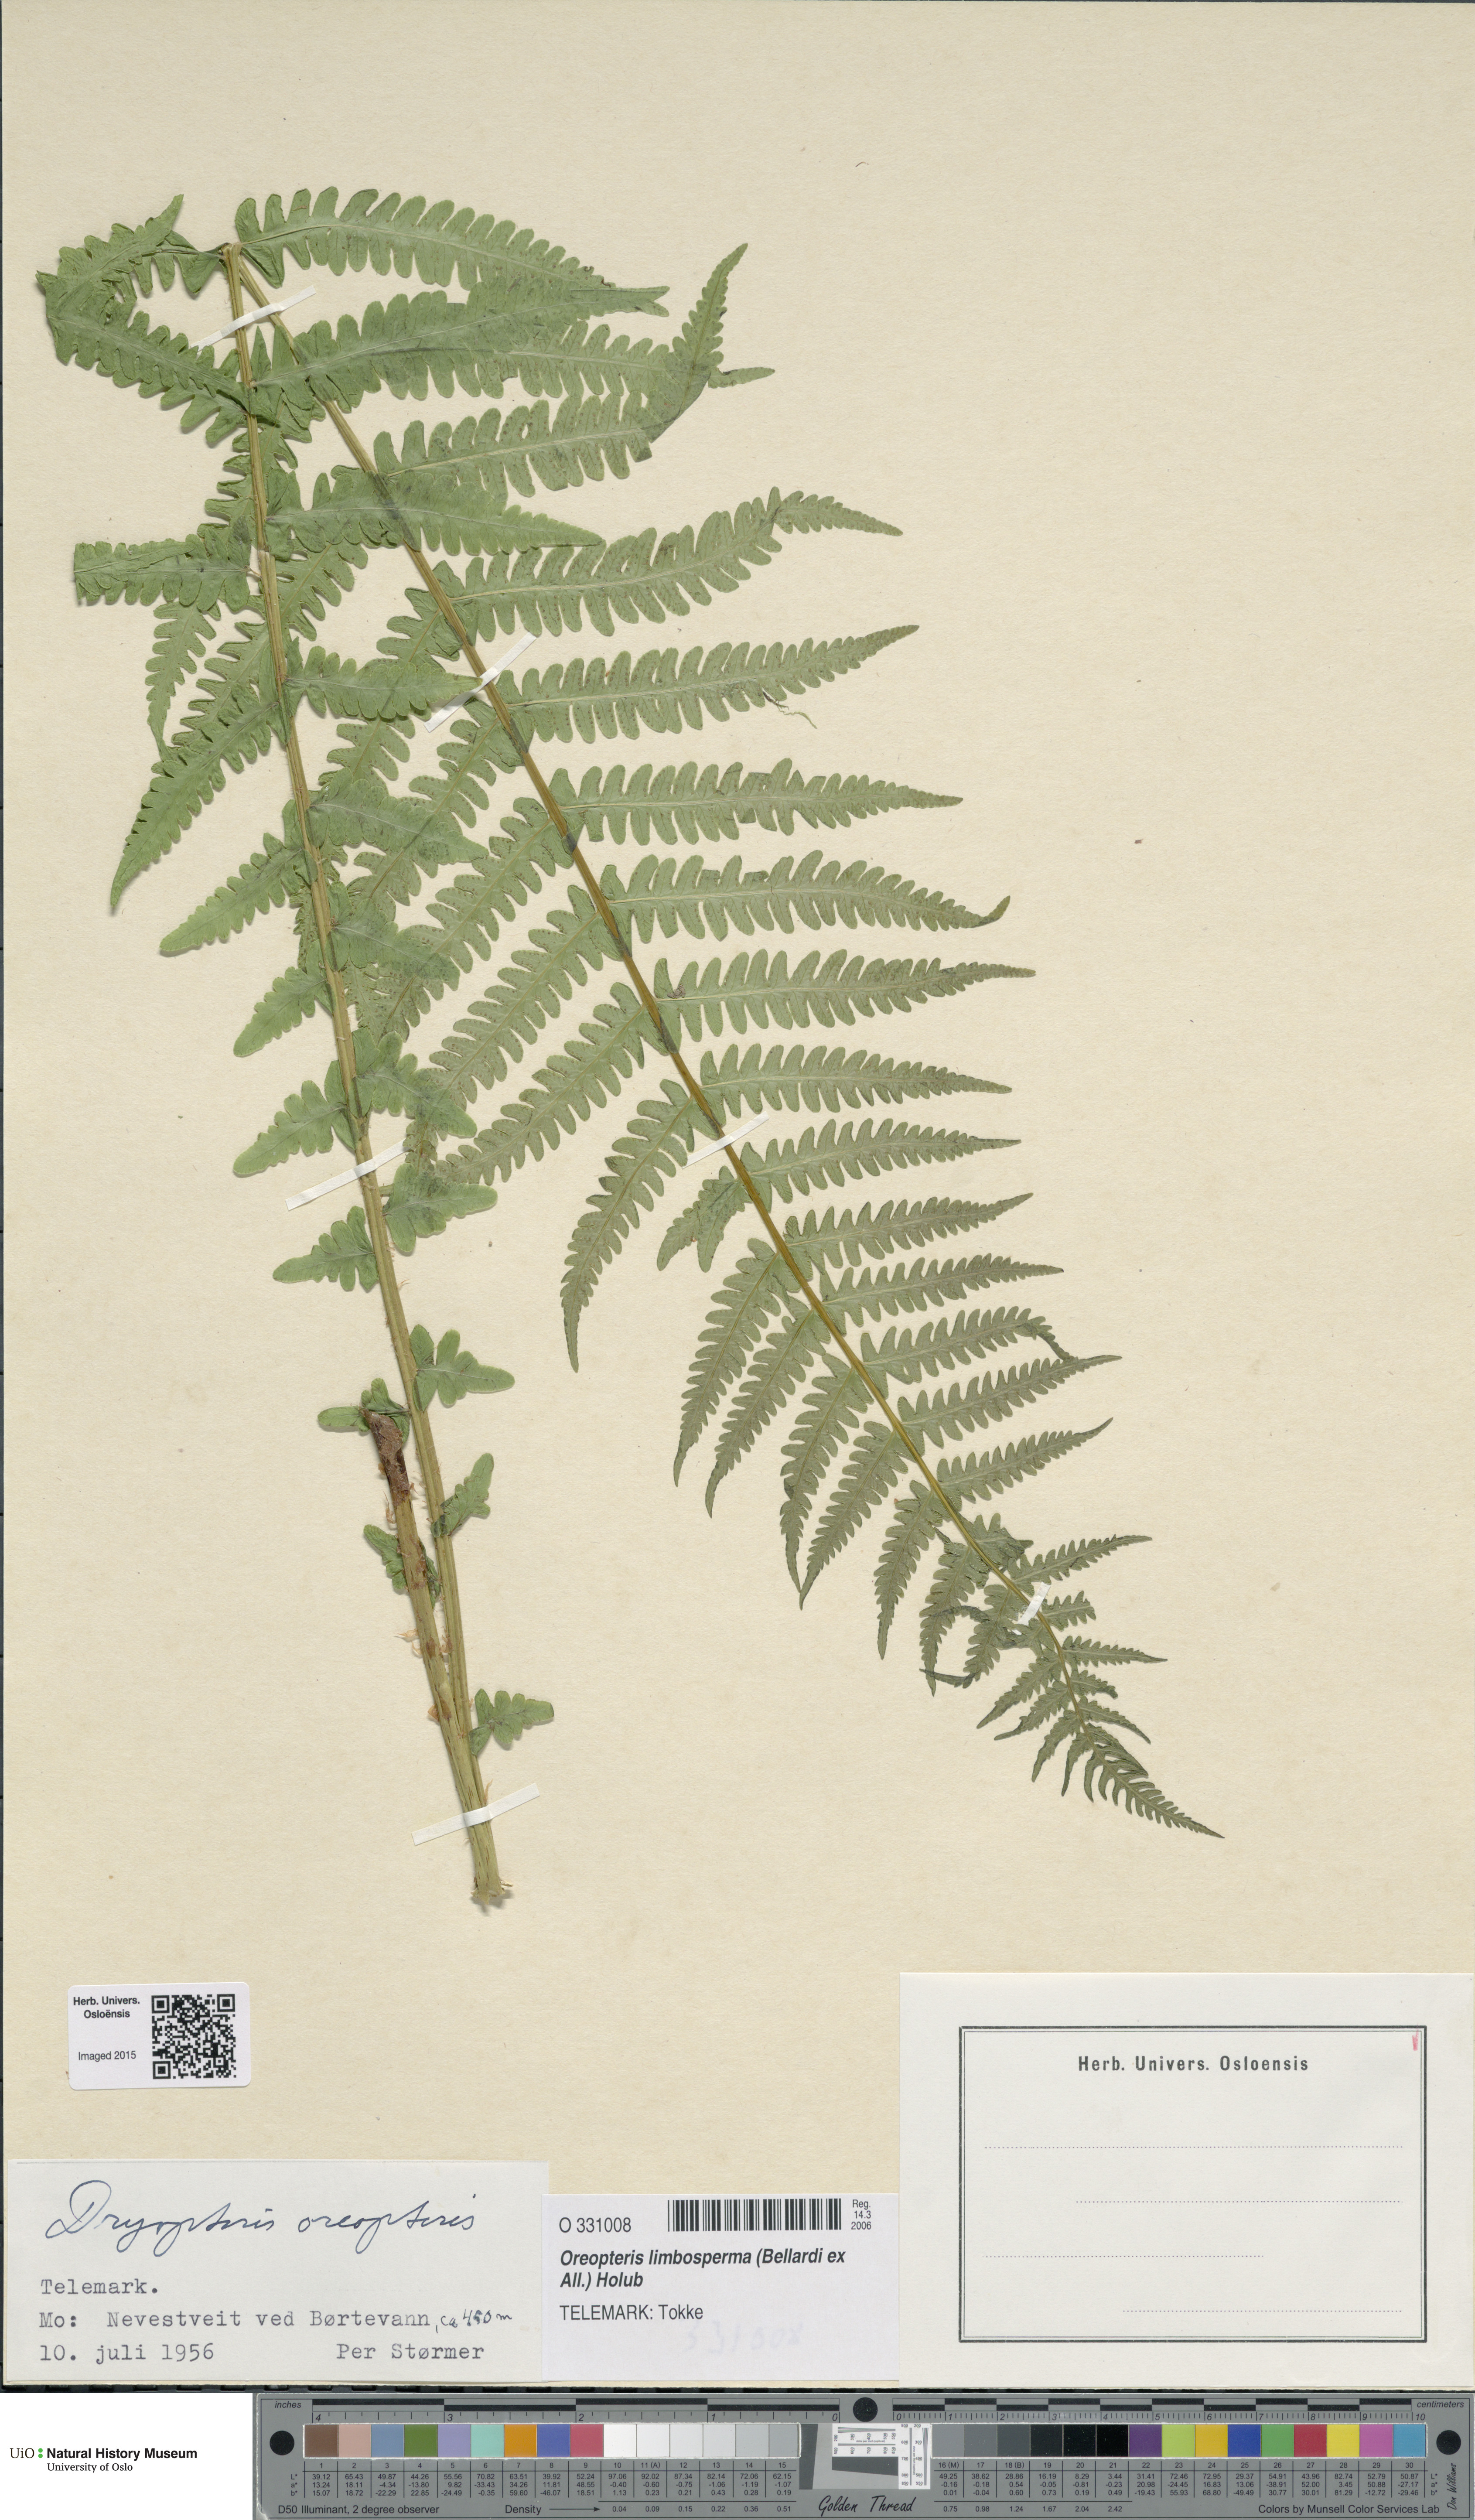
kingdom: Plantae
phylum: Tracheophyta
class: Polypodiopsida
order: Polypodiales
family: Thelypteridaceae
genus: Oreopteris
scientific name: Oreopteris limbosperma
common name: Lemon-scented fern
